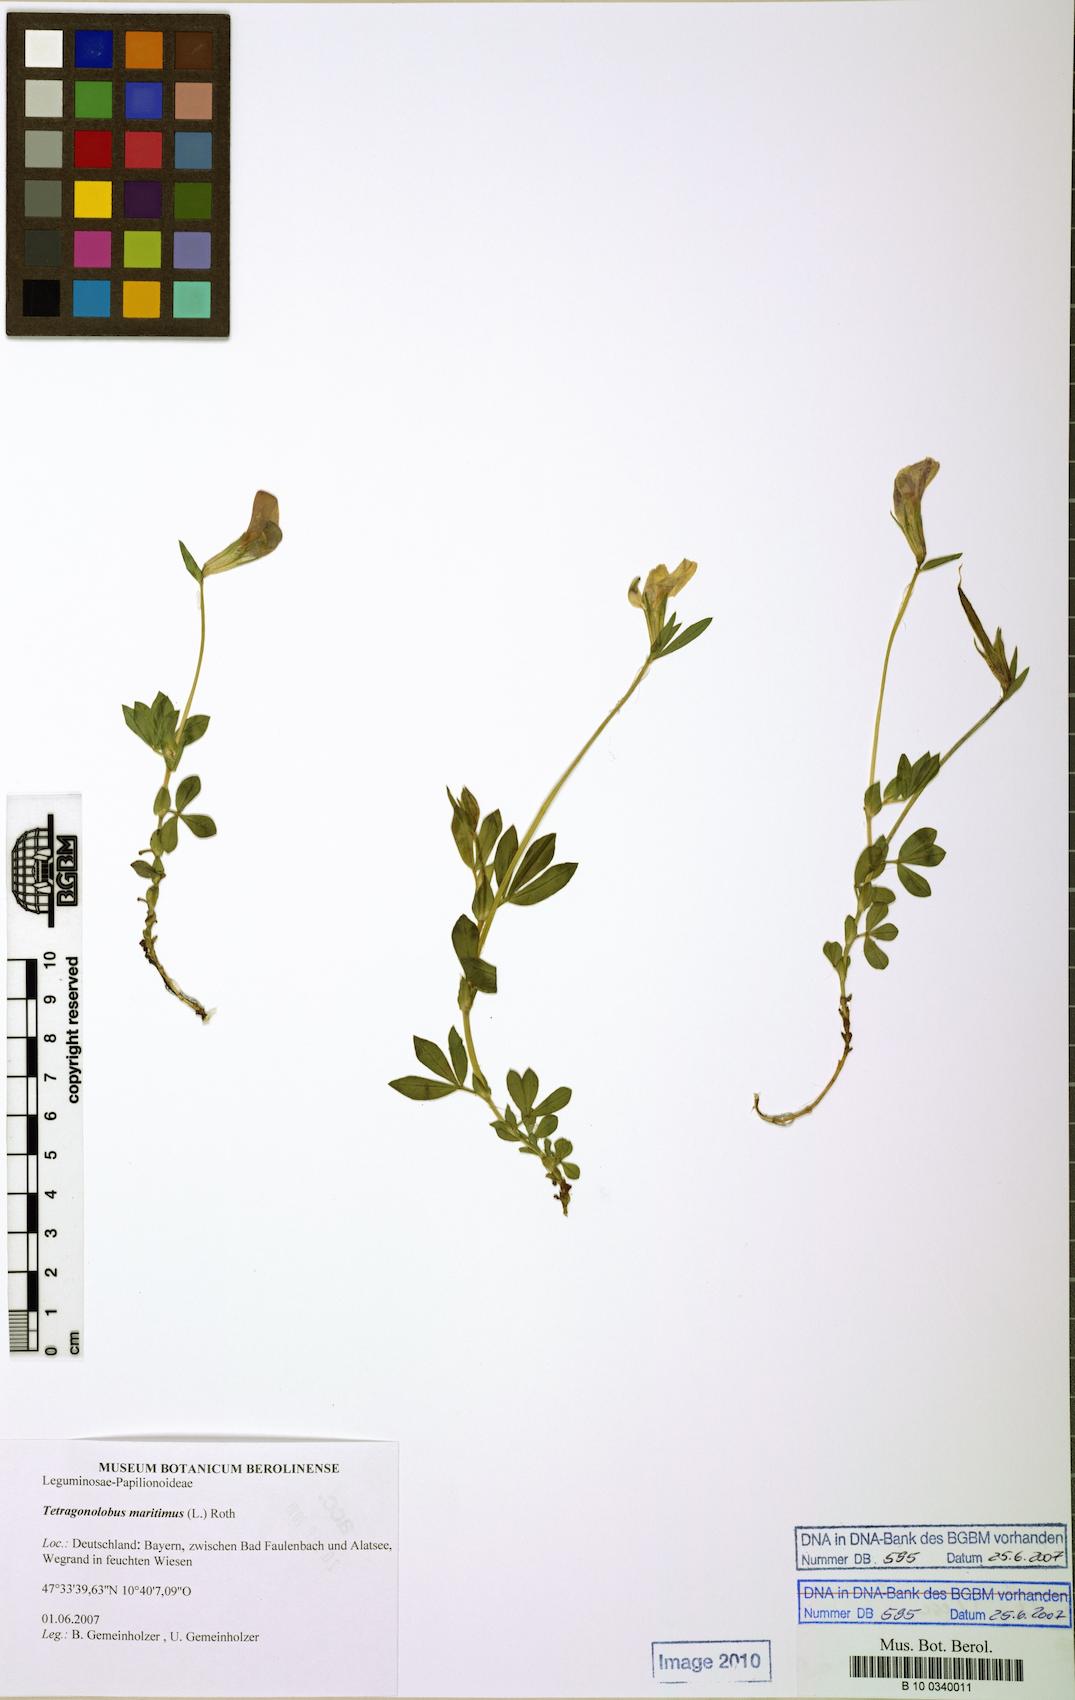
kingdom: Plantae
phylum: Tracheophyta
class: Magnoliopsida
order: Fabales
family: Fabaceae
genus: Lotus
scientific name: Lotus maritimus
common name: Dragon's-teeth
